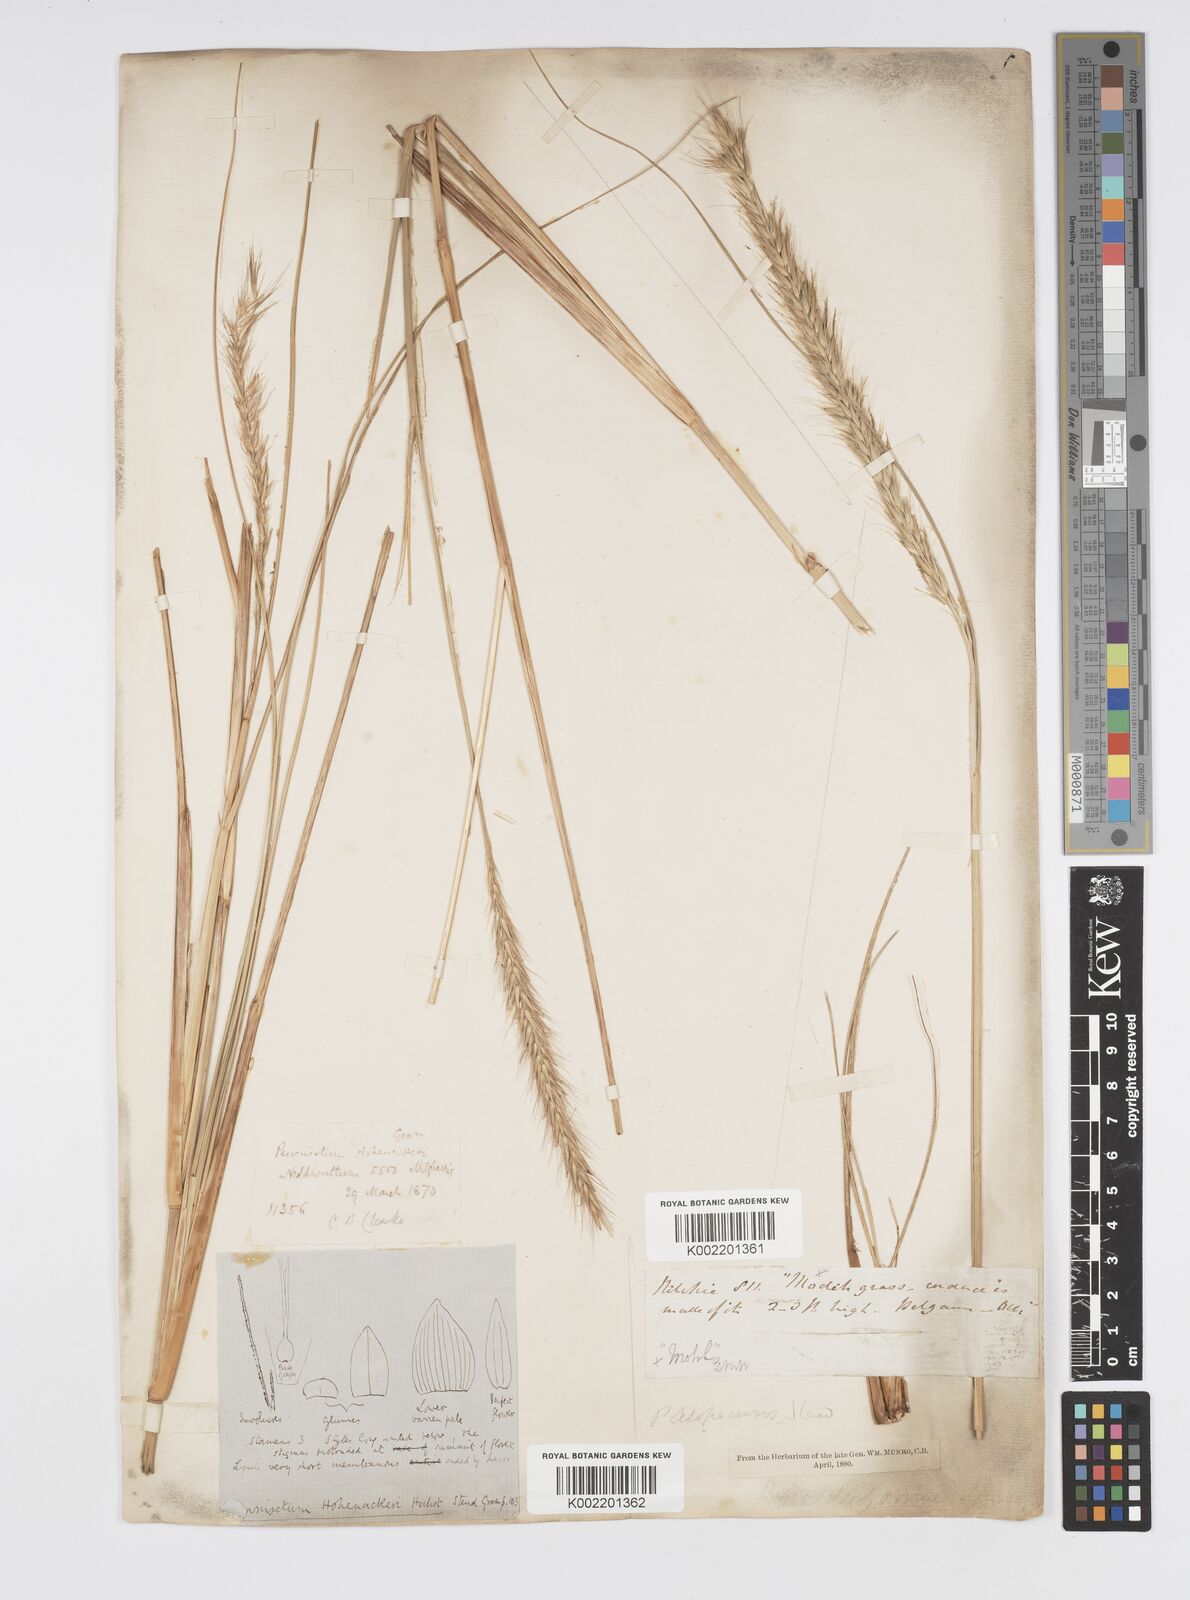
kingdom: Plantae
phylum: Tracheophyta
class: Liliopsida
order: Poales
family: Poaceae
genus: Cenchrus
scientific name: Cenchrus hohenackeri
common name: Moya grass
